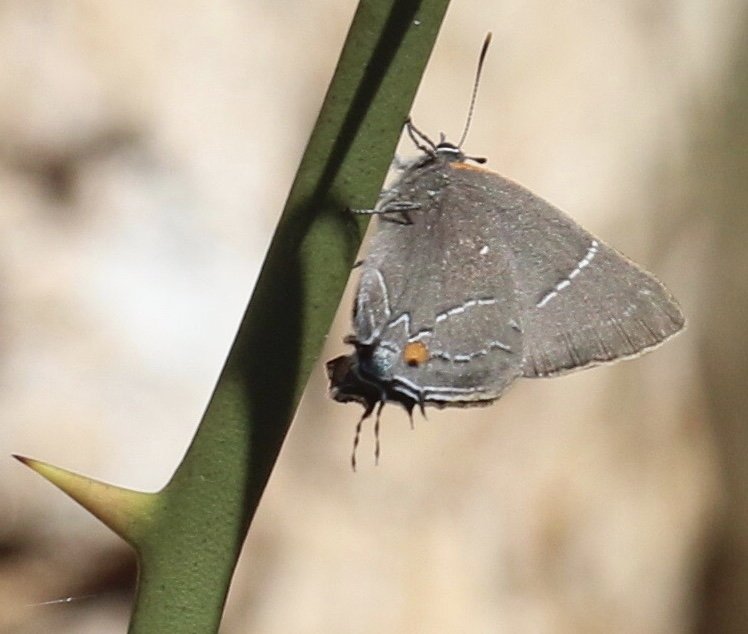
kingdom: Animalia
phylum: Arthropoda
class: Insecta
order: Lepidoptera
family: Lycaenidae
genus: Parrhasius
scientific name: Parrhasius m-album
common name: White-m Hairstreak
